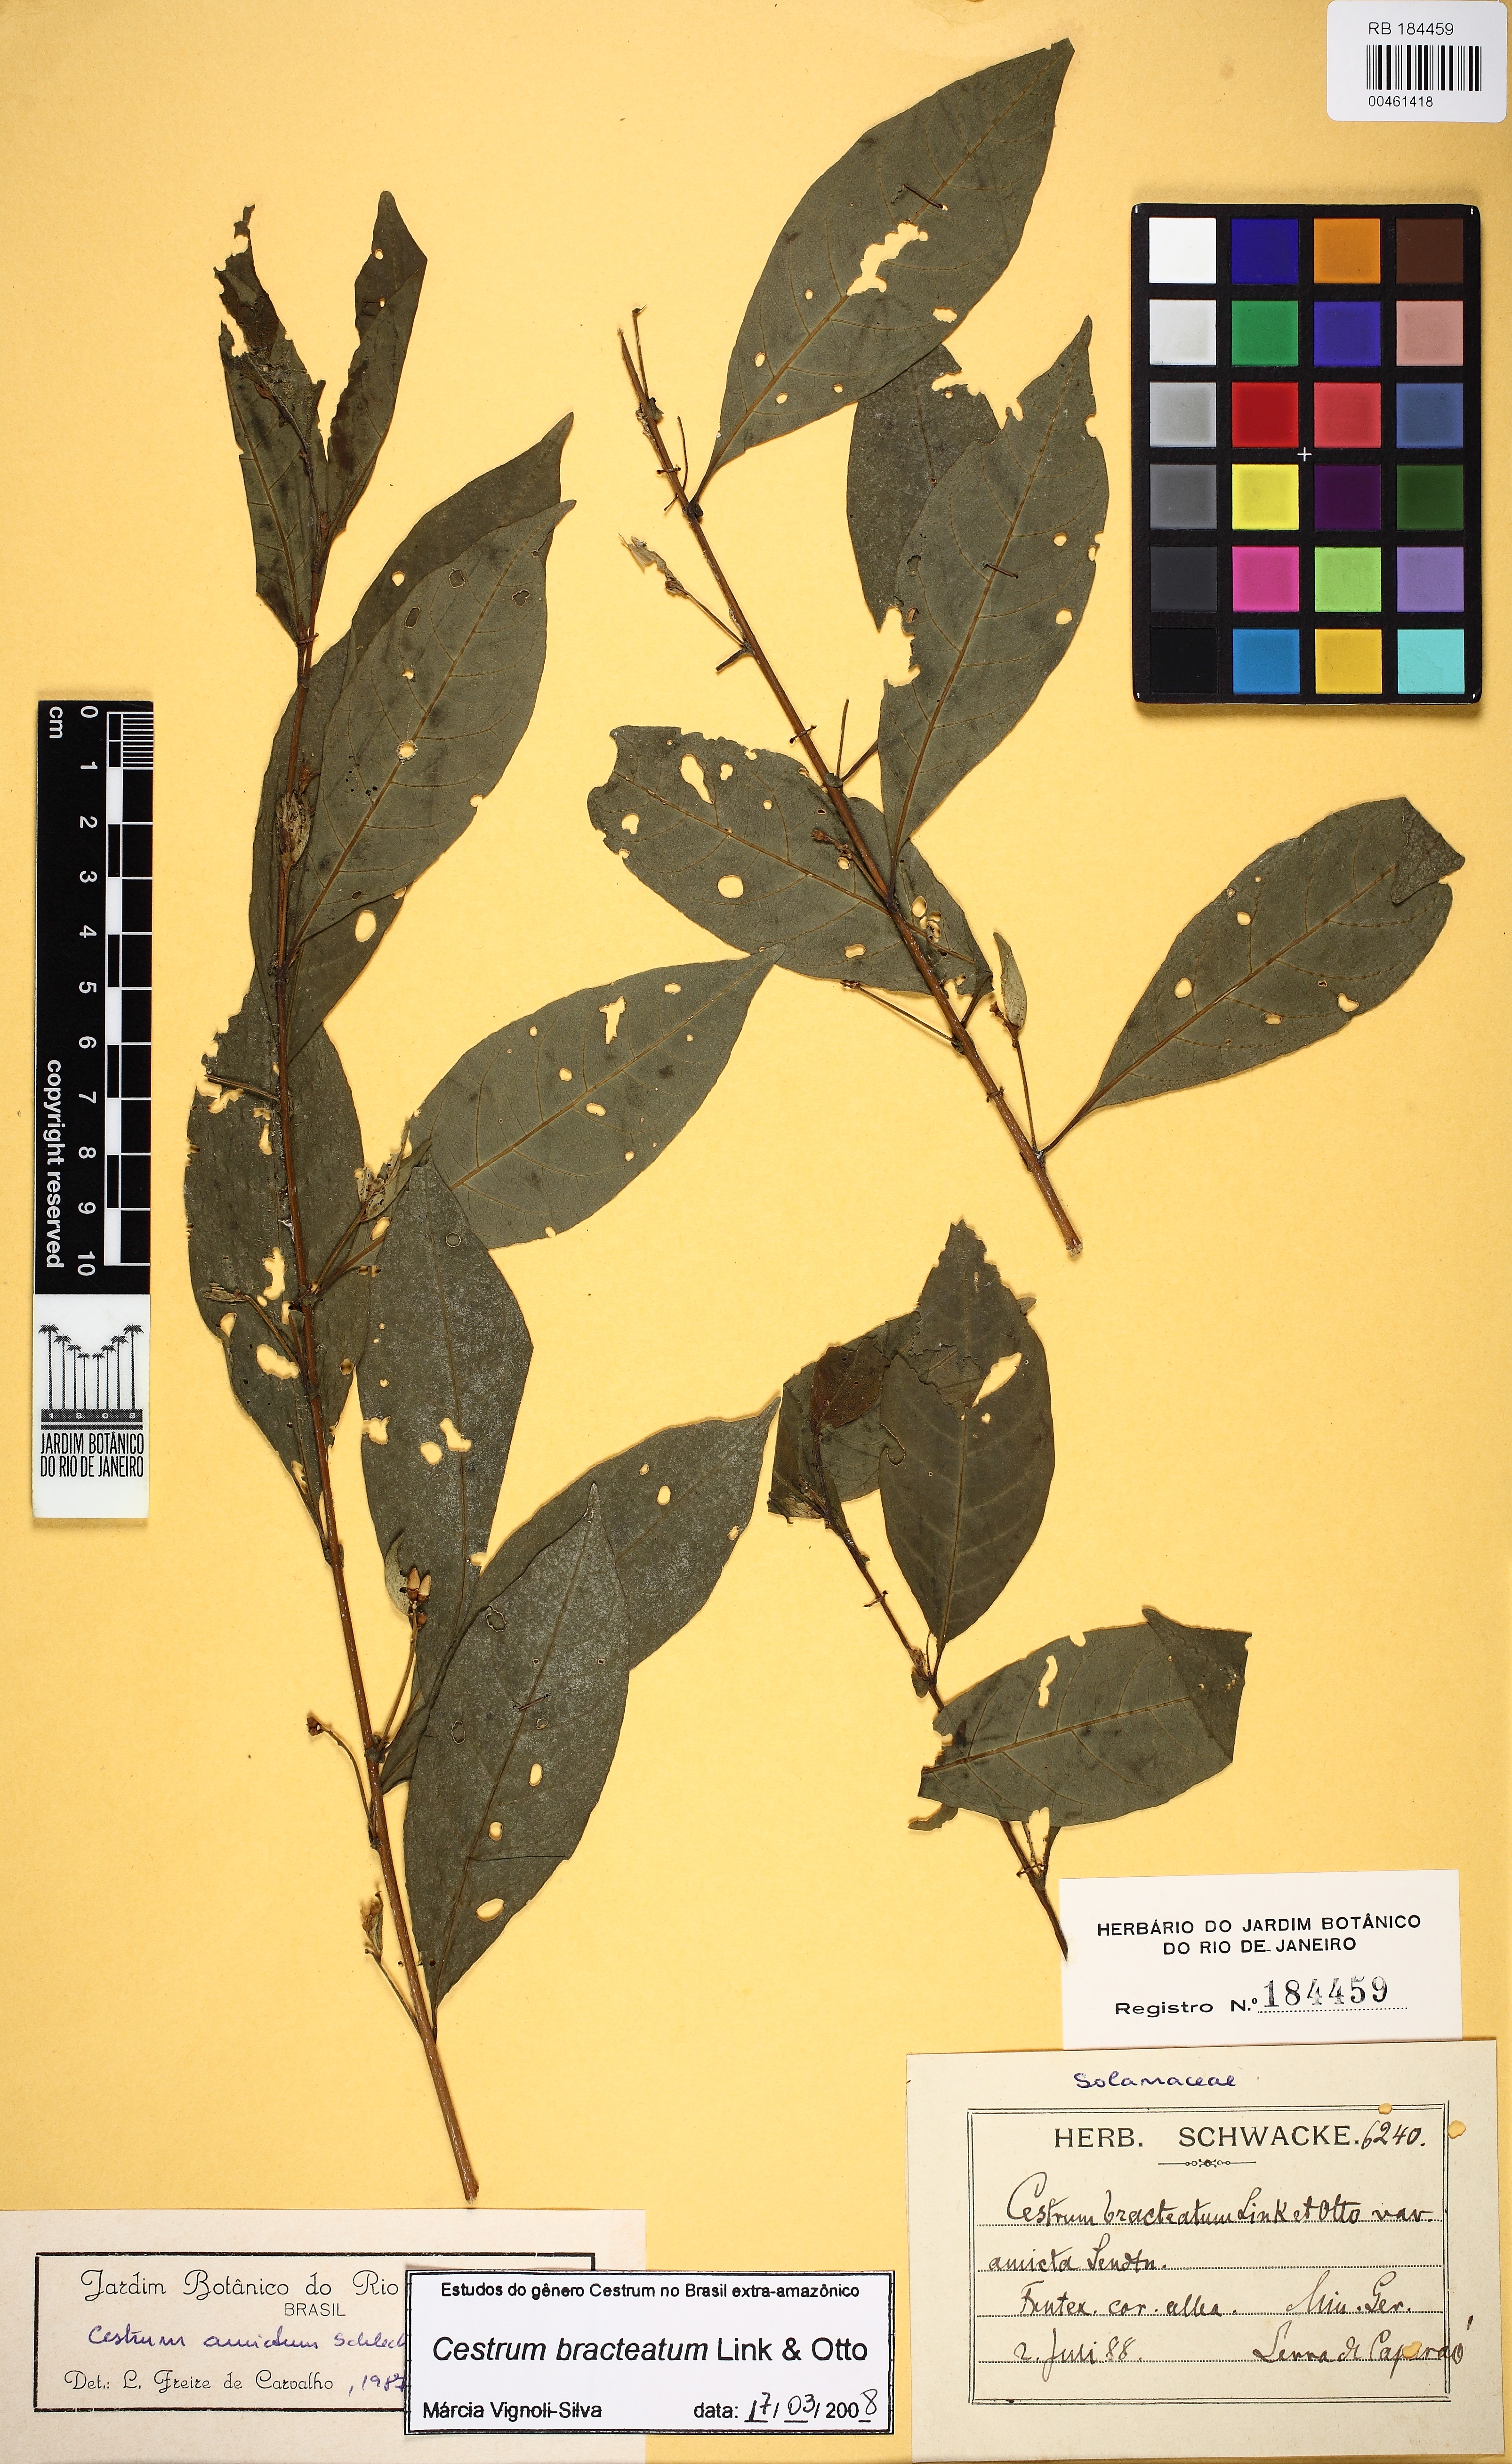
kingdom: Plantae
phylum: Tracheophyta
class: Magnoliopsida
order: Solanales
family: Solanaceae
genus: Cestrum
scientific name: Cestrum bracteatum
